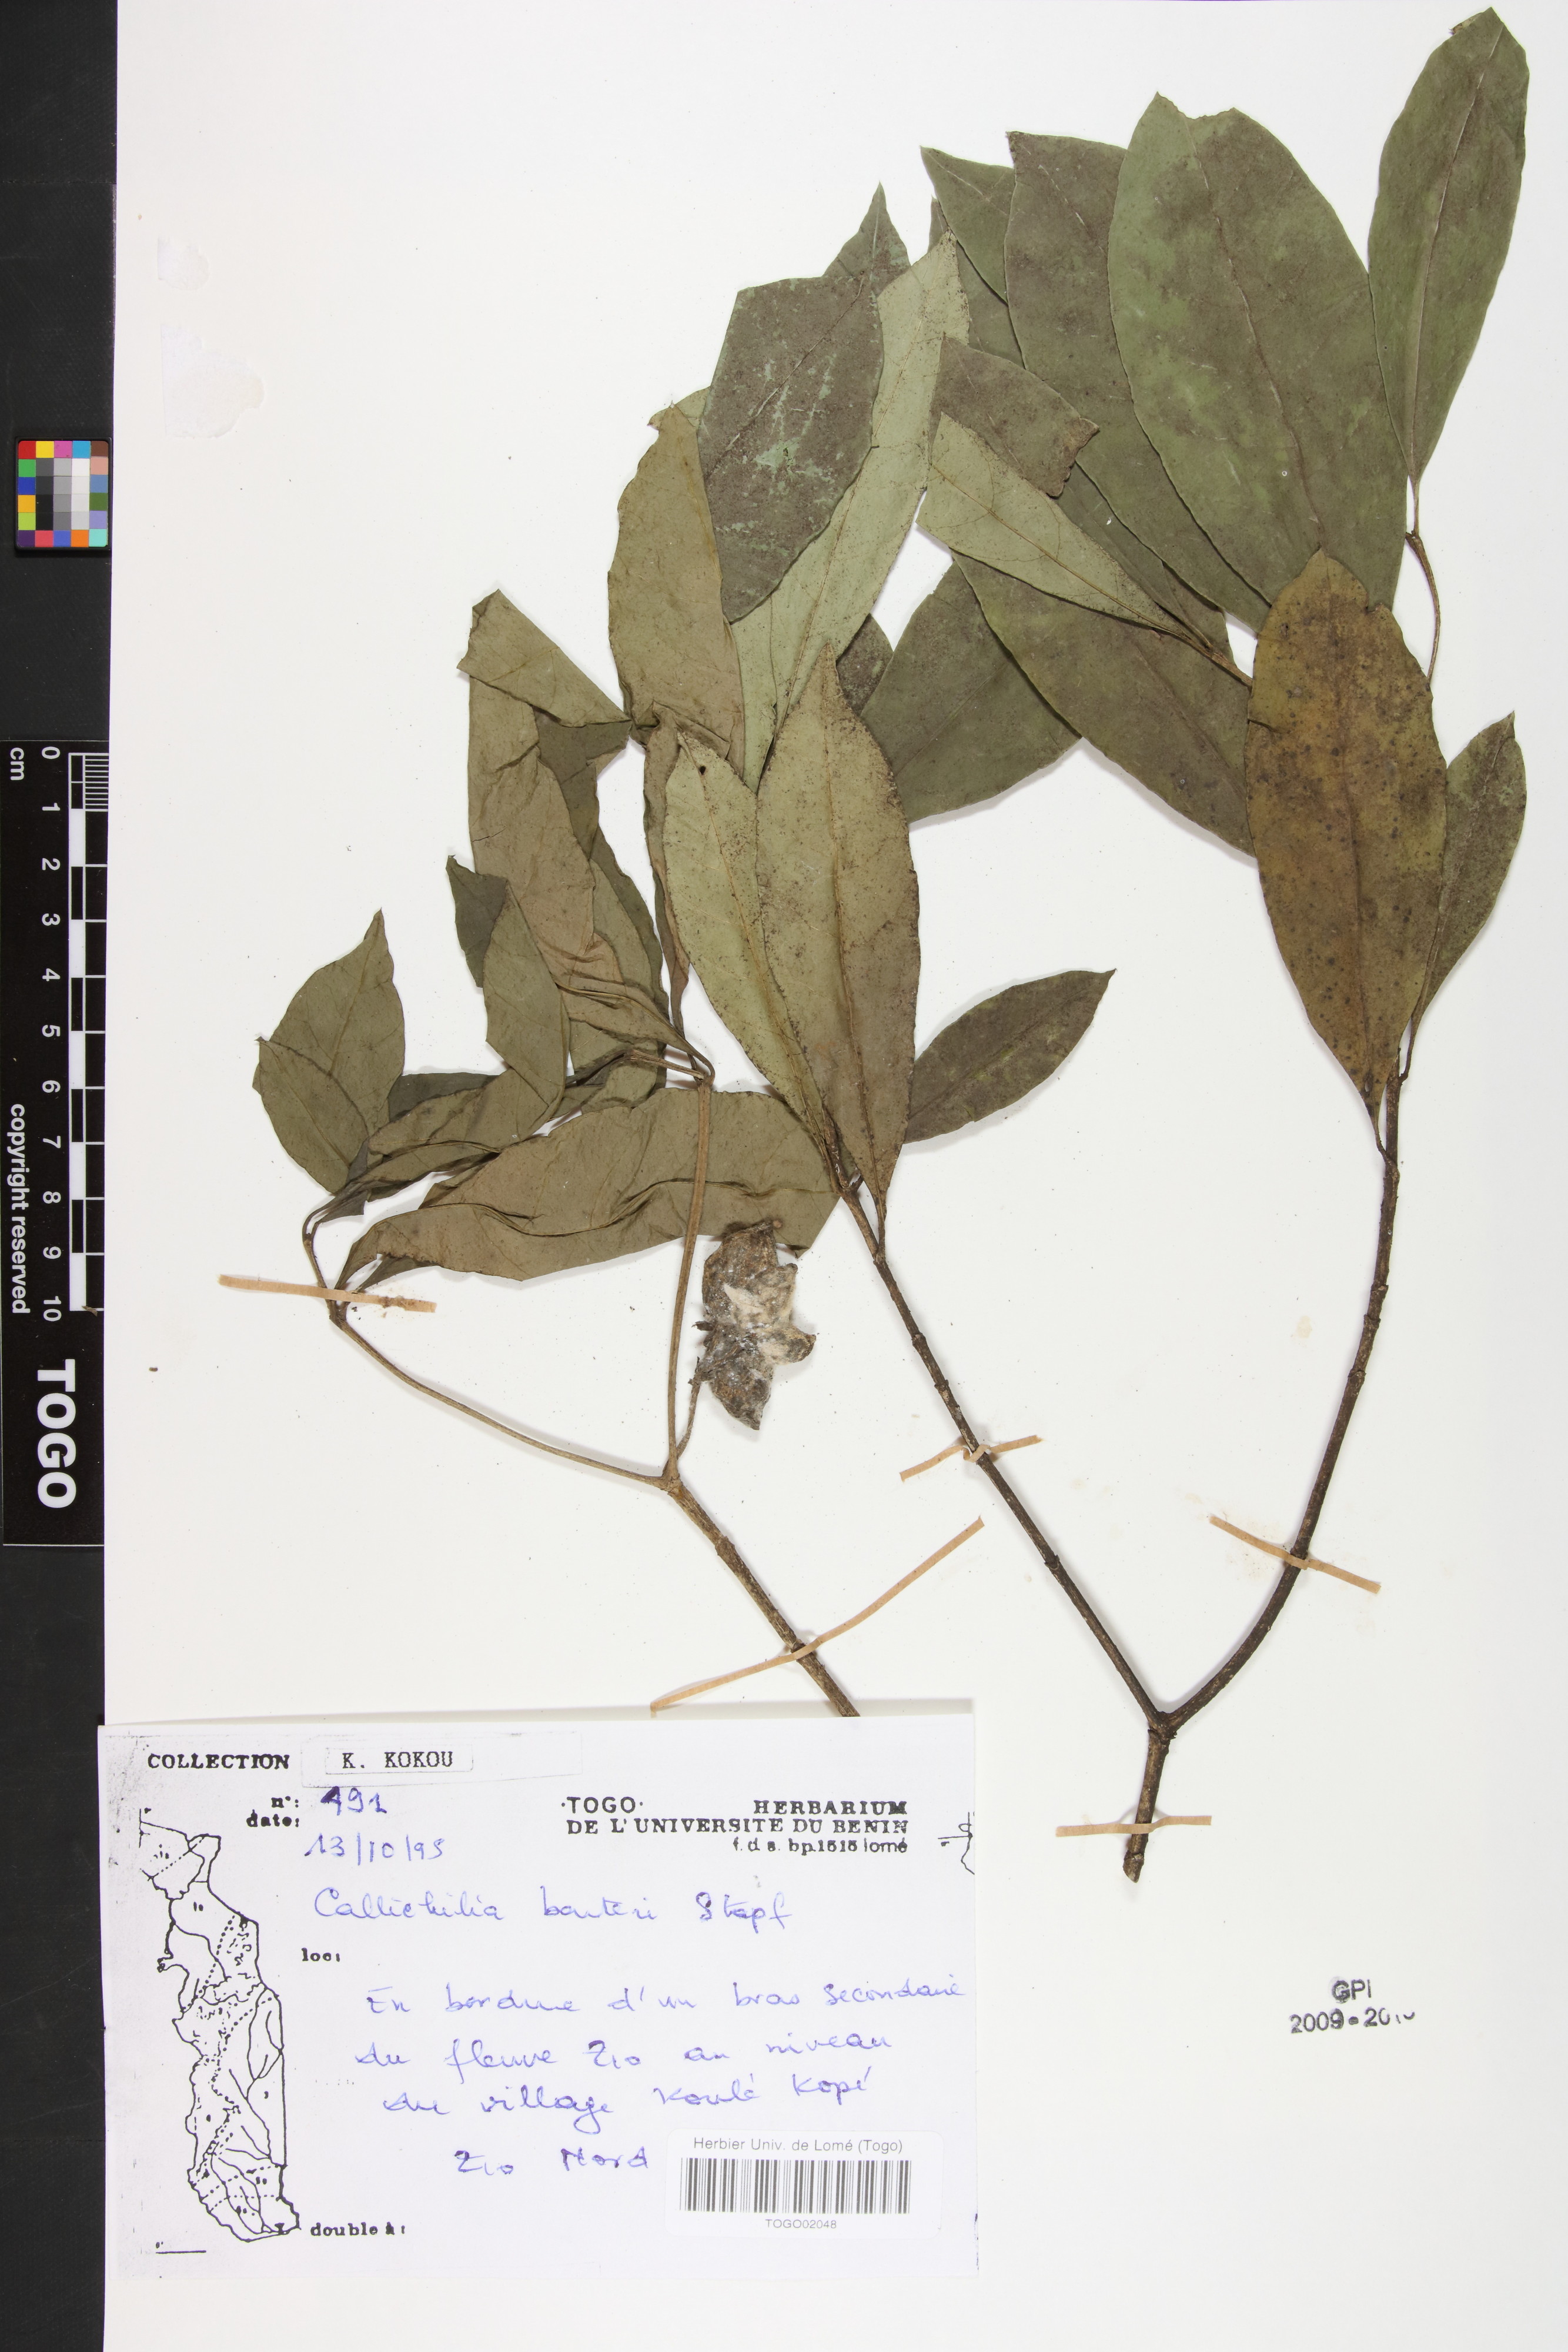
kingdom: Plantae
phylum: Tracheophyta
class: Magnoliopsida
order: Gentianales
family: Apocynaceae
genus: Callichilia
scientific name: Callichilia barteri
